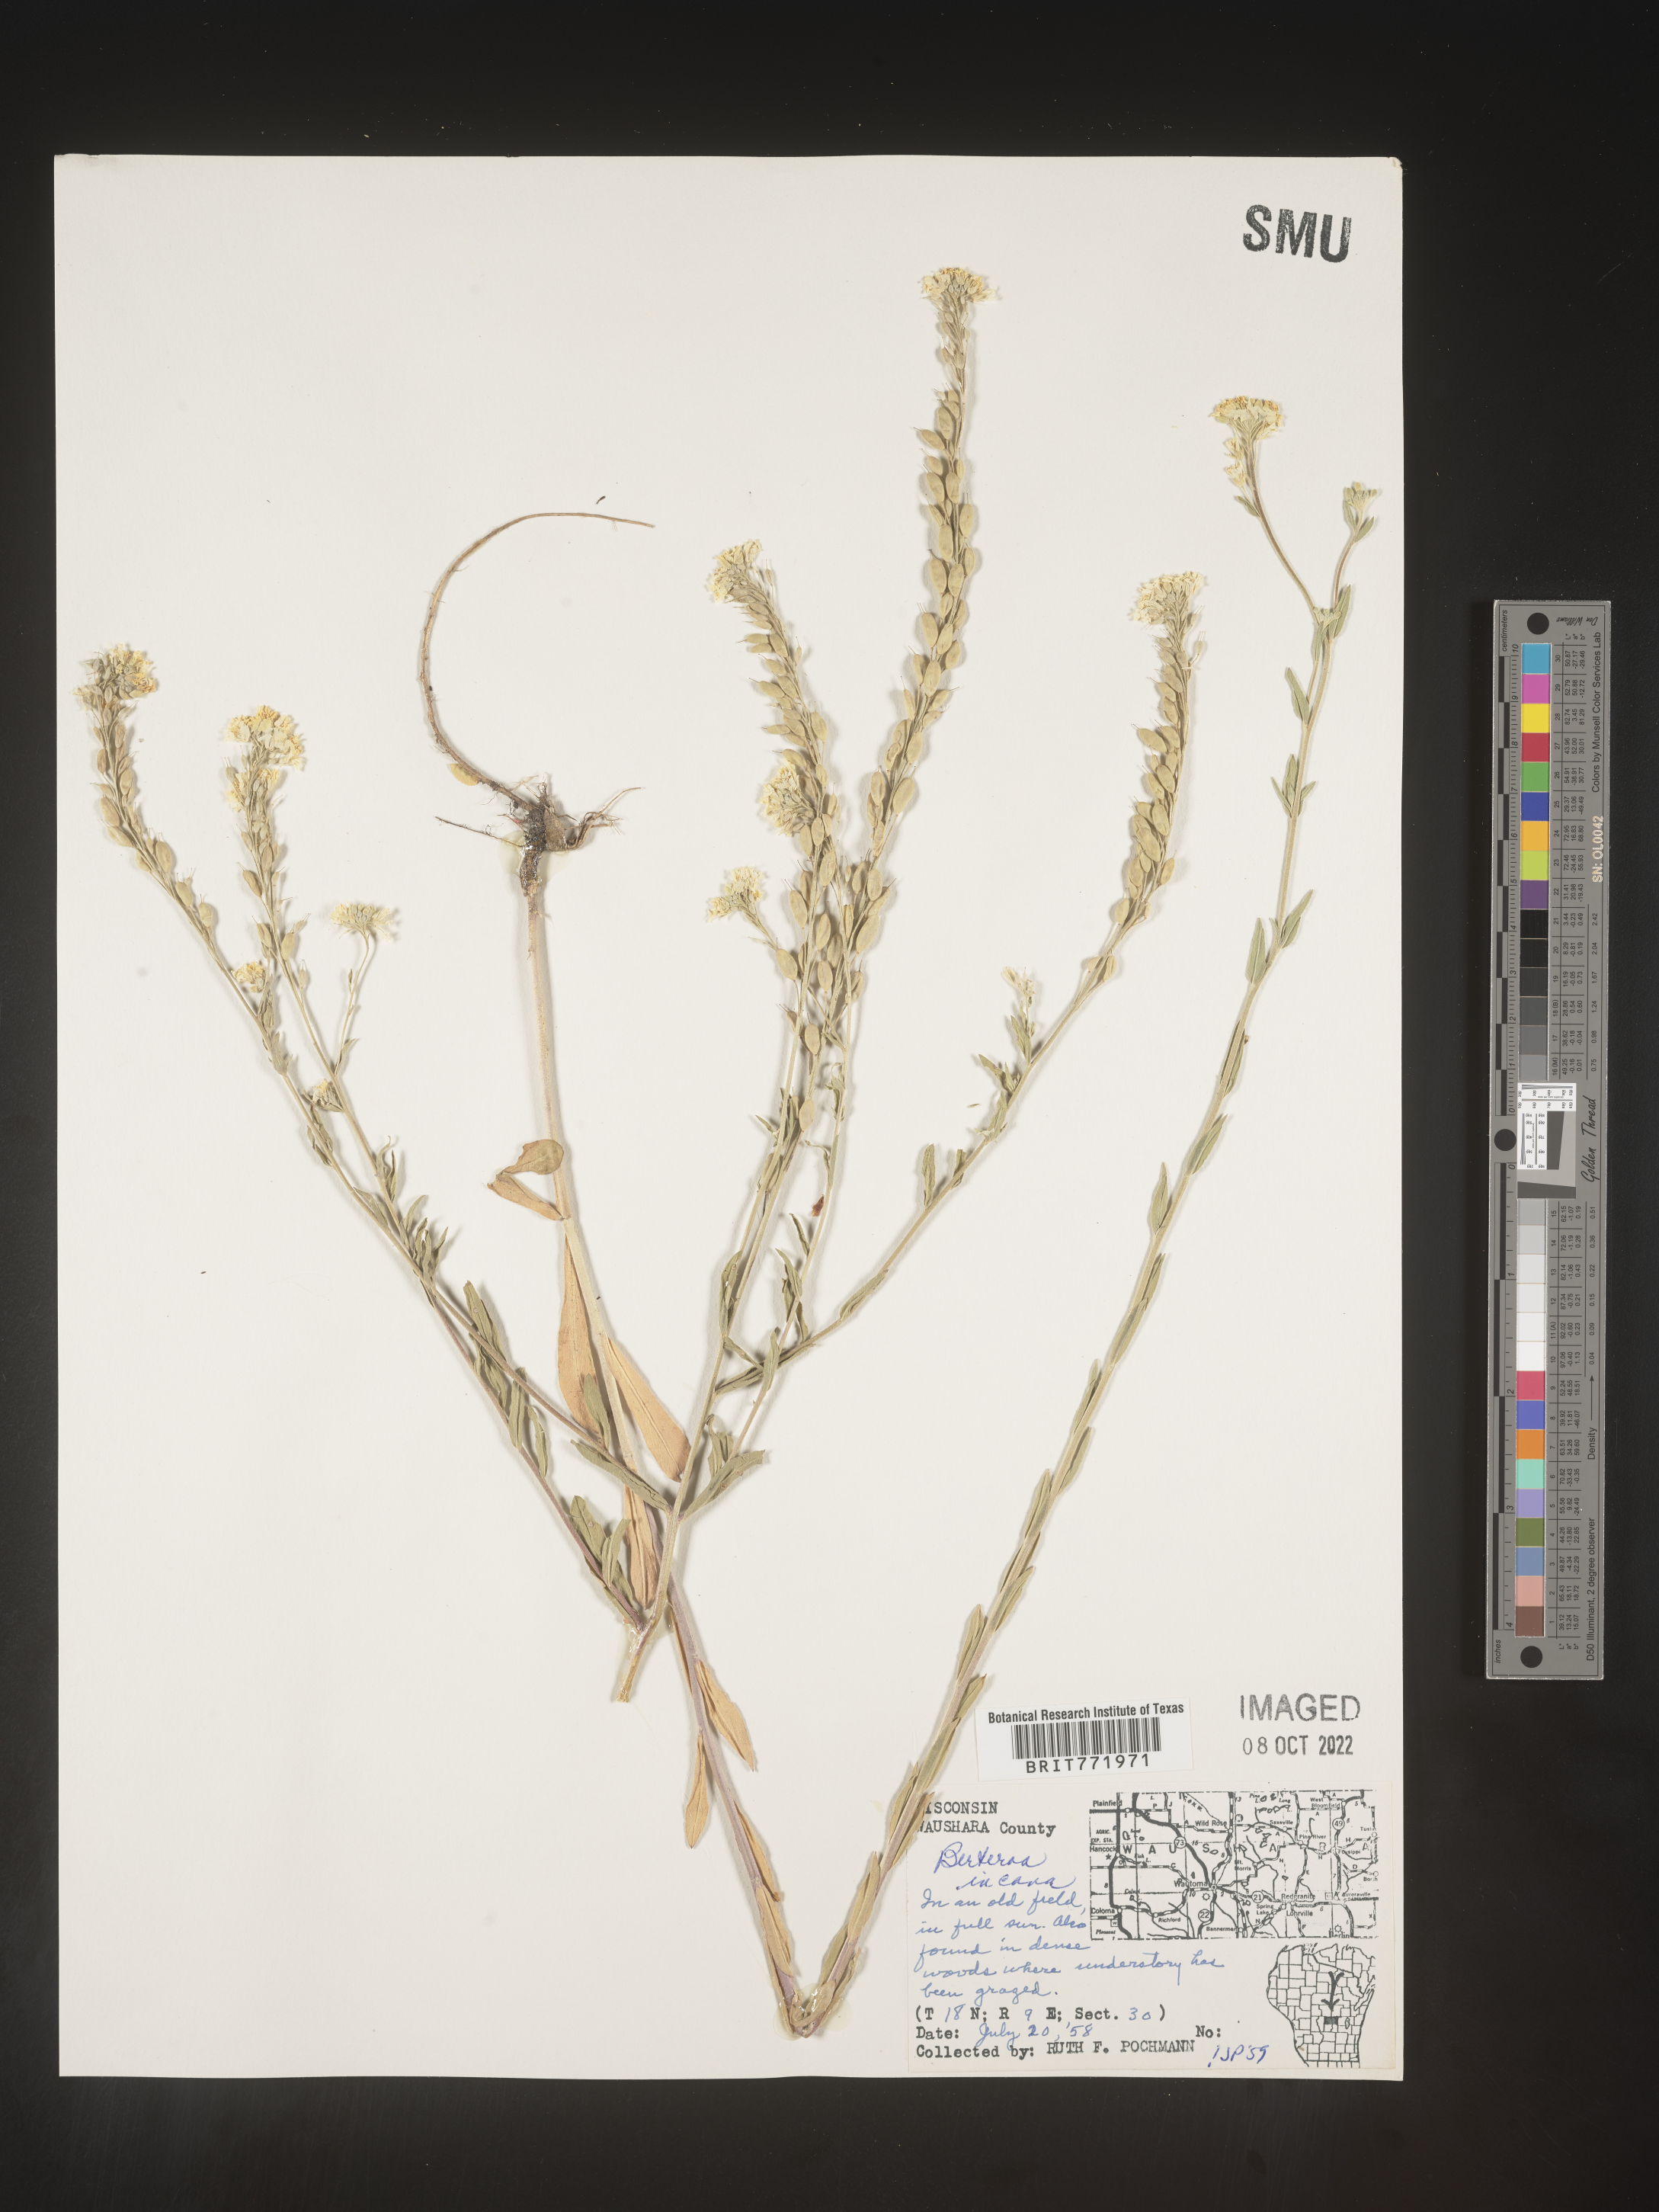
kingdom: Plantae
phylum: Tracheophyta
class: Magnoliopsida
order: Brassicales
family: Brassicaceae
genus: Berteroa
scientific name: Berteroa incana
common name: Hoary alison
